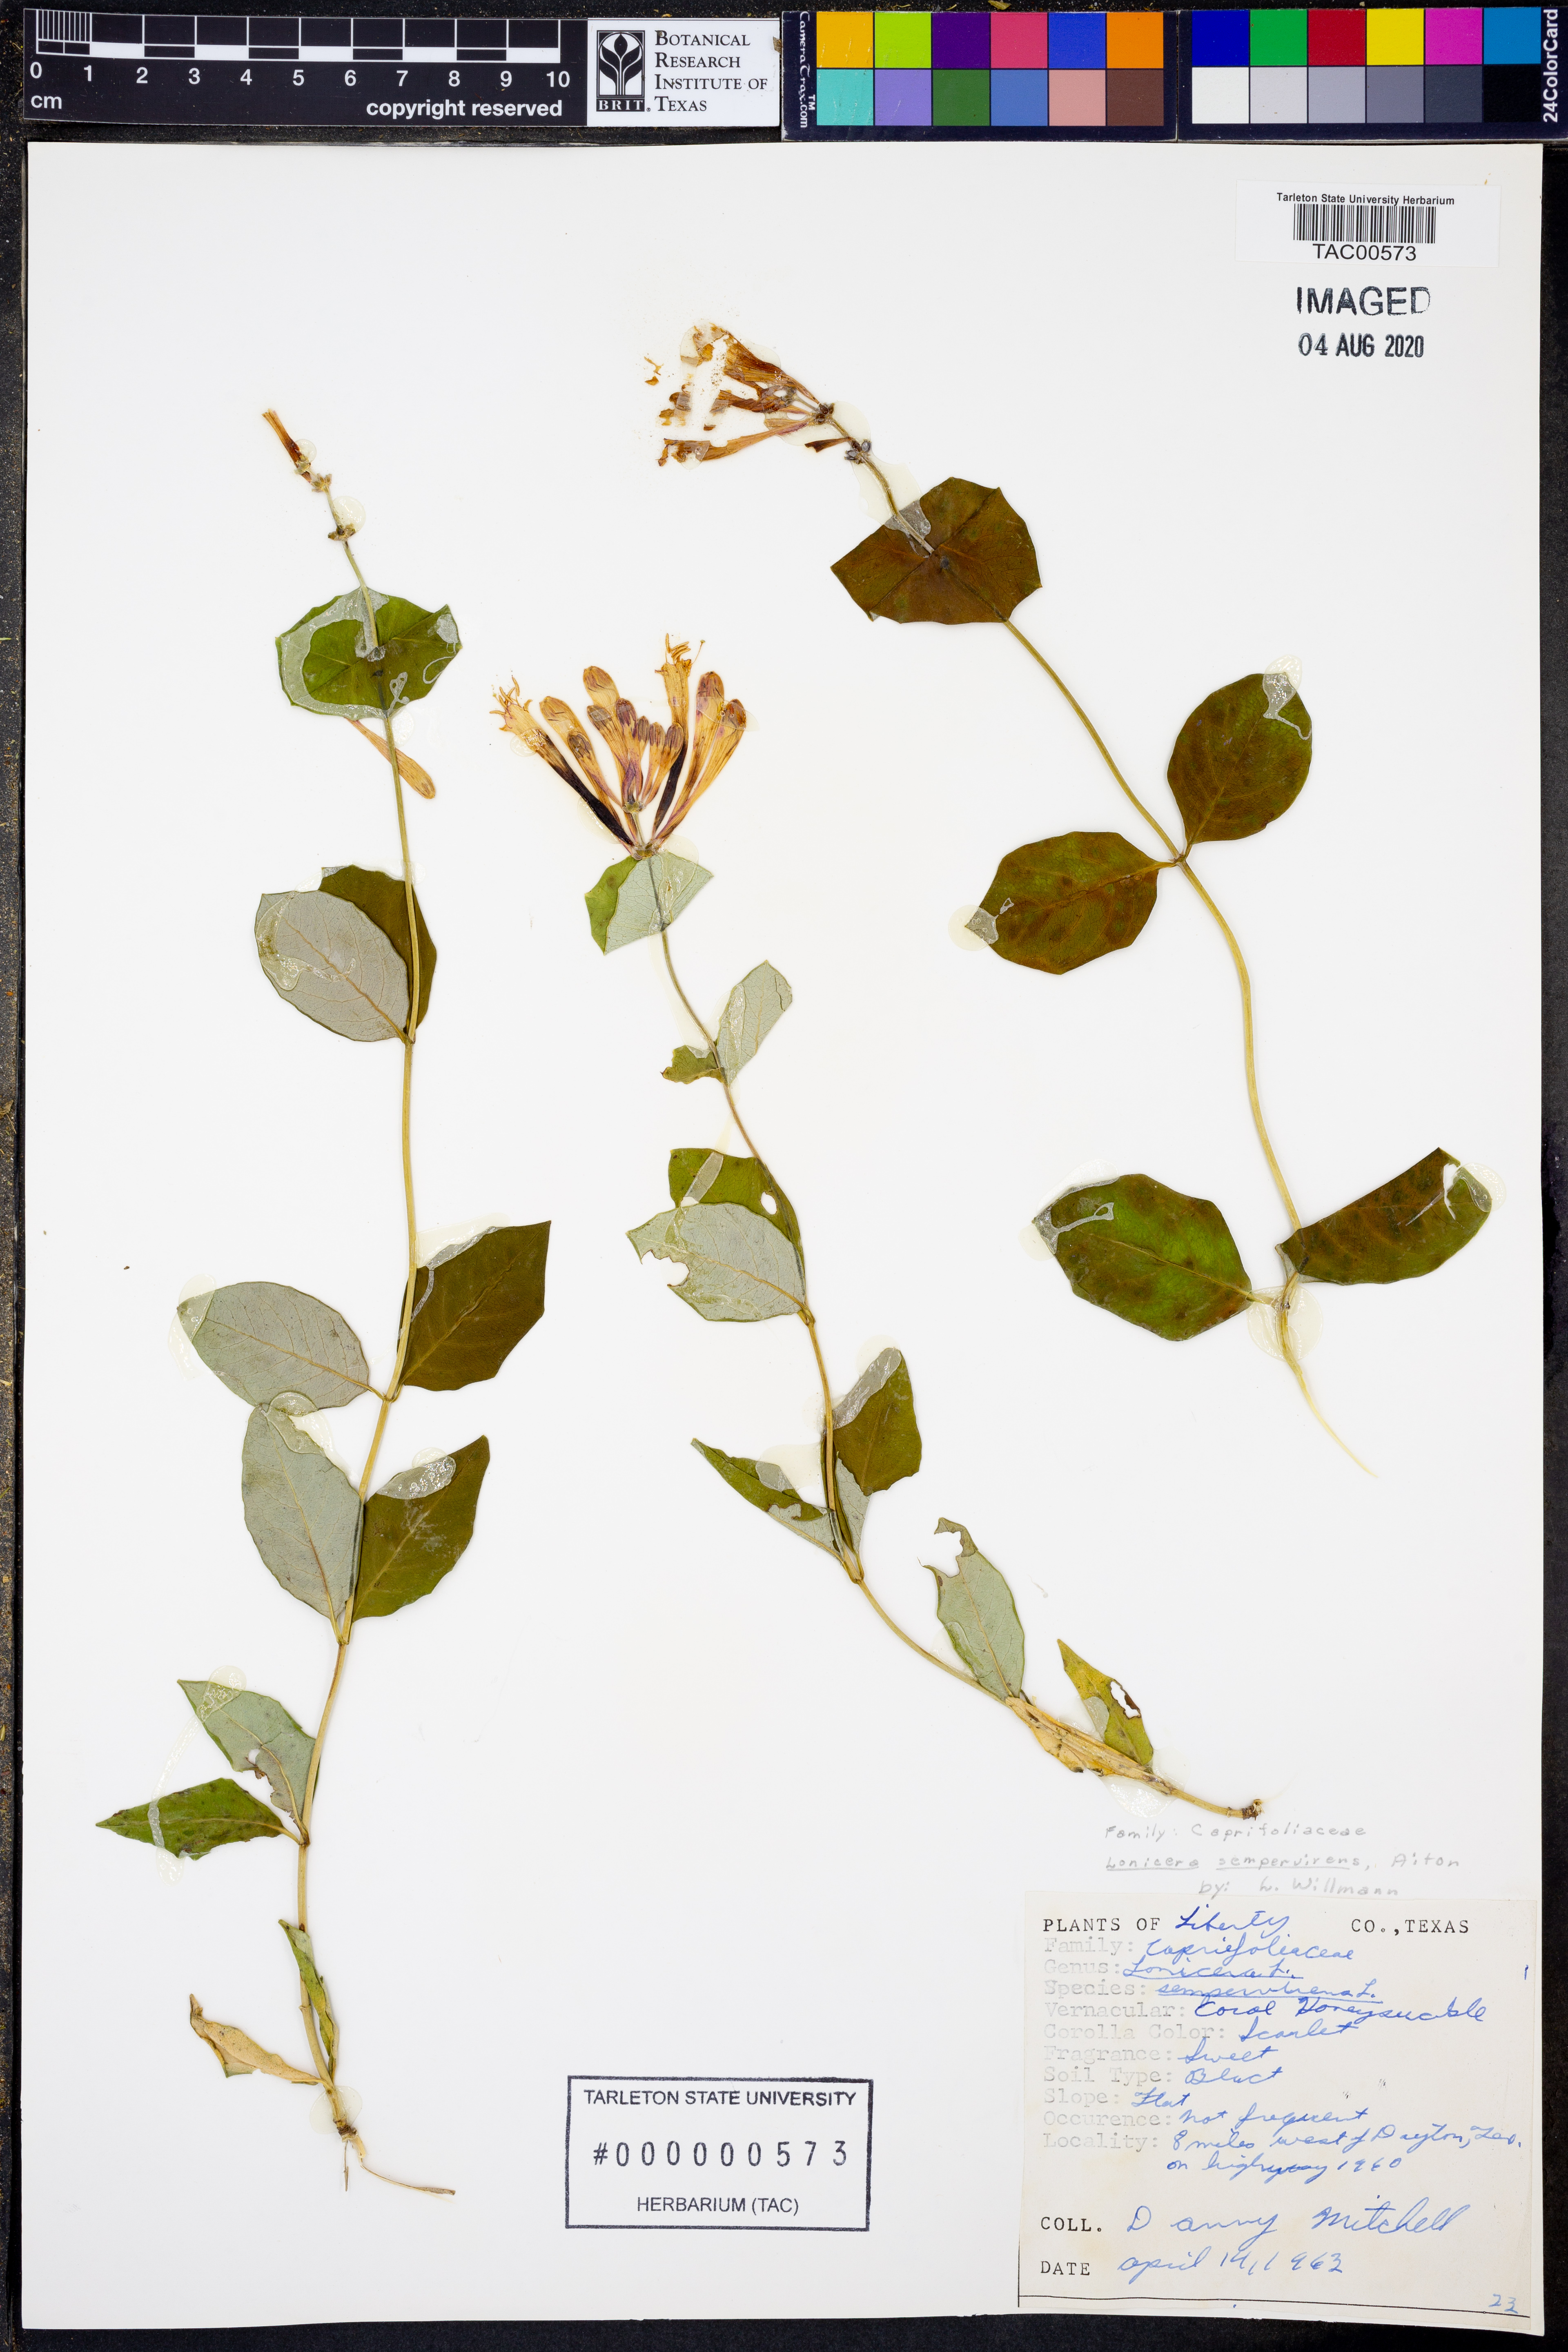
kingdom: Plantae
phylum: Tracheophyta
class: Magnoliopsida
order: Dipsacales
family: Caprifoliaceae
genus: Lonicera
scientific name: Lonicera sempervirens
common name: Coral honeysuckle
